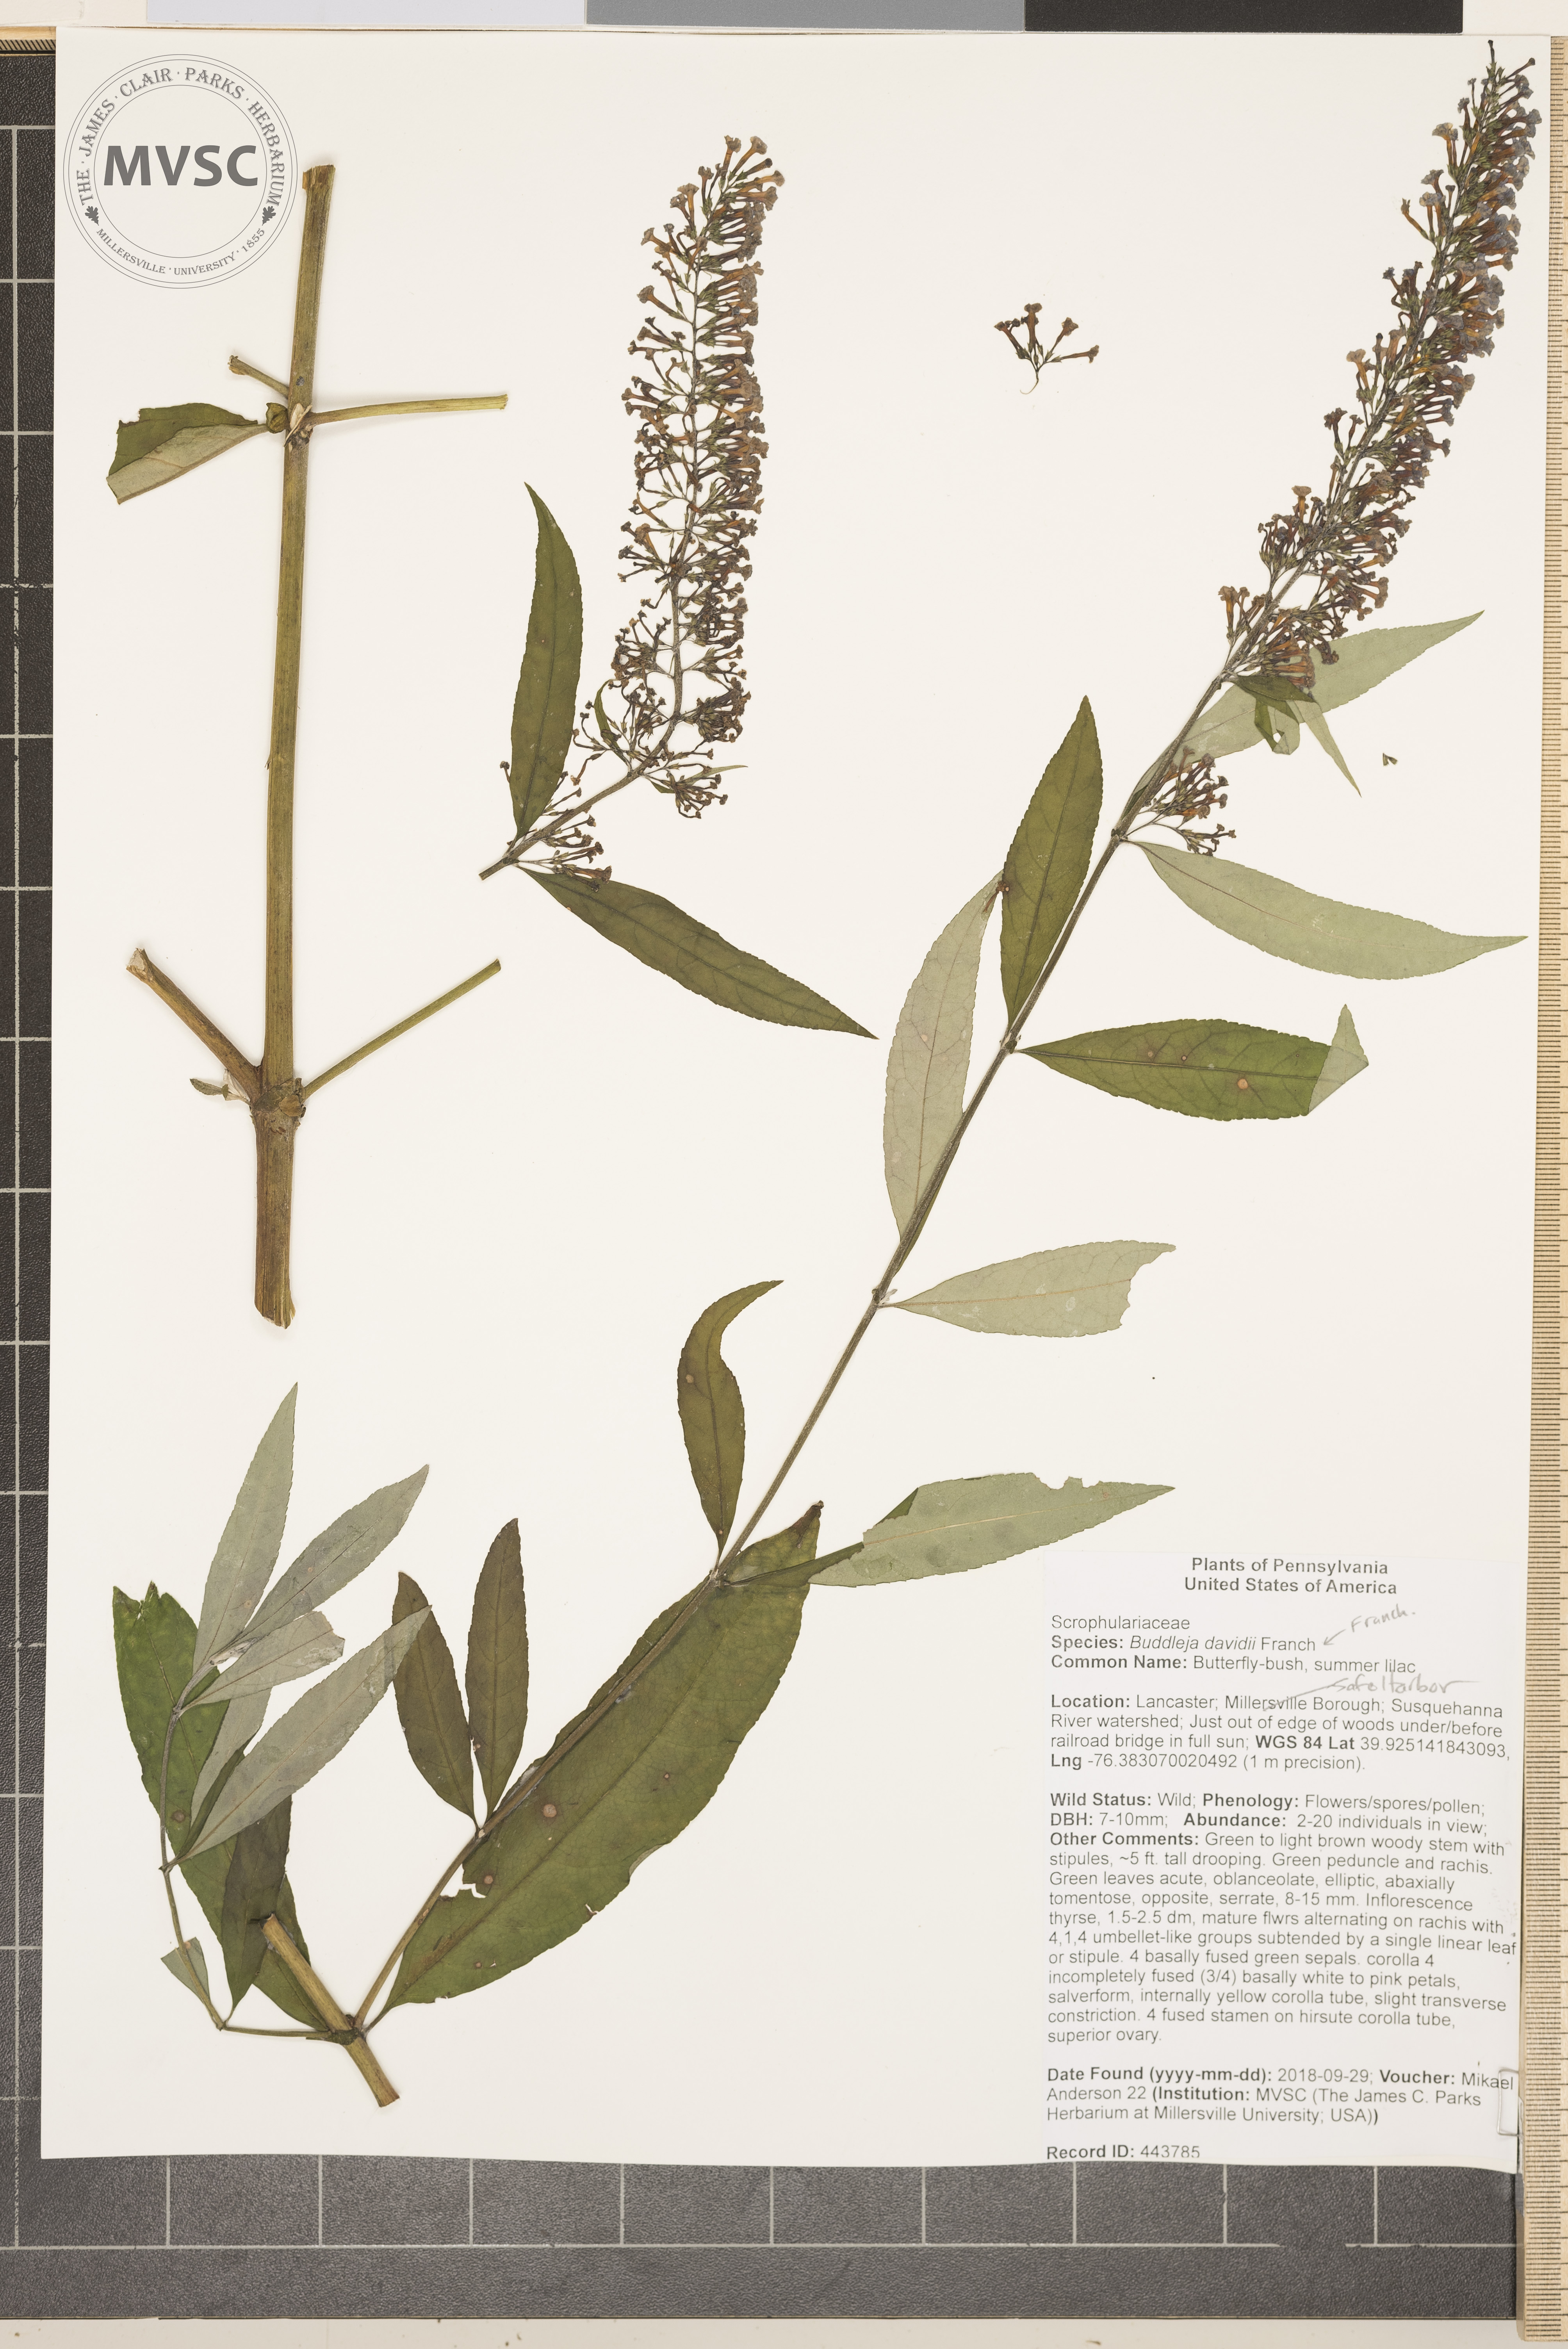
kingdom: Plantae
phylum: Tracheophyta
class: Magnoliopsida
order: Lamiales
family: Scrophulariaceae
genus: Buddleja
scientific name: Buddleja davidii
